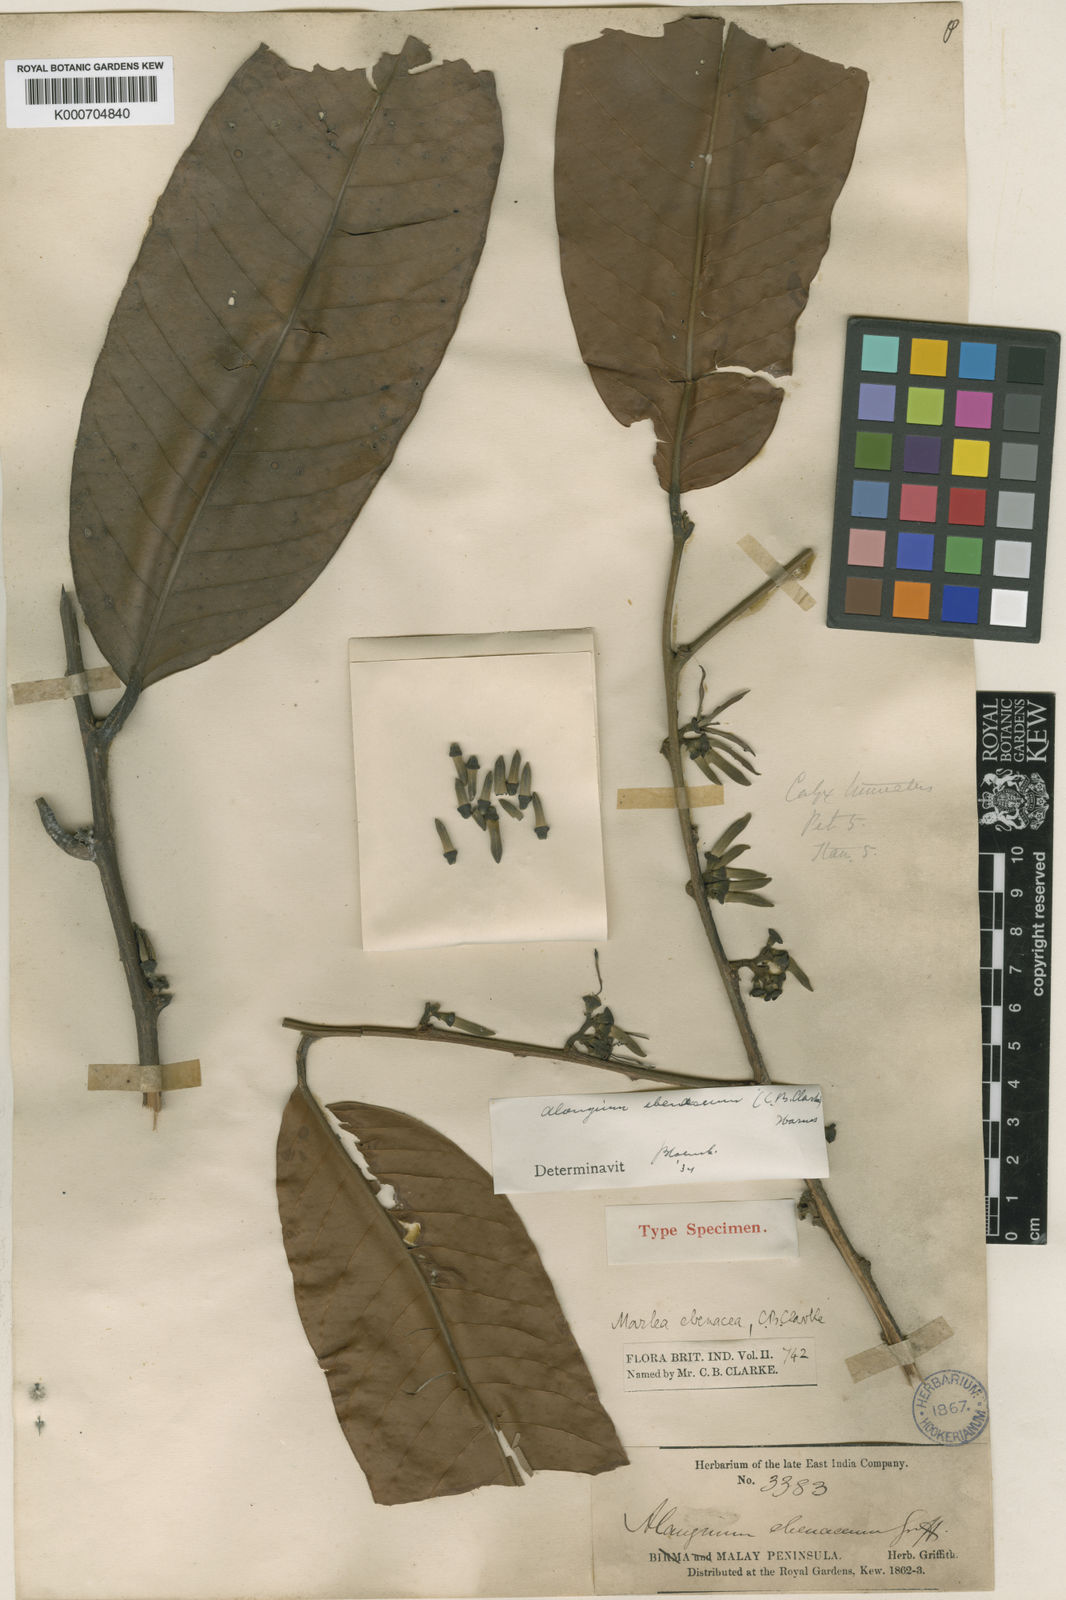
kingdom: Plantae
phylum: Tracheophyta
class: Magnoliopsida
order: Cornales
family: Cornaceae
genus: Alangium
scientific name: Alangium
